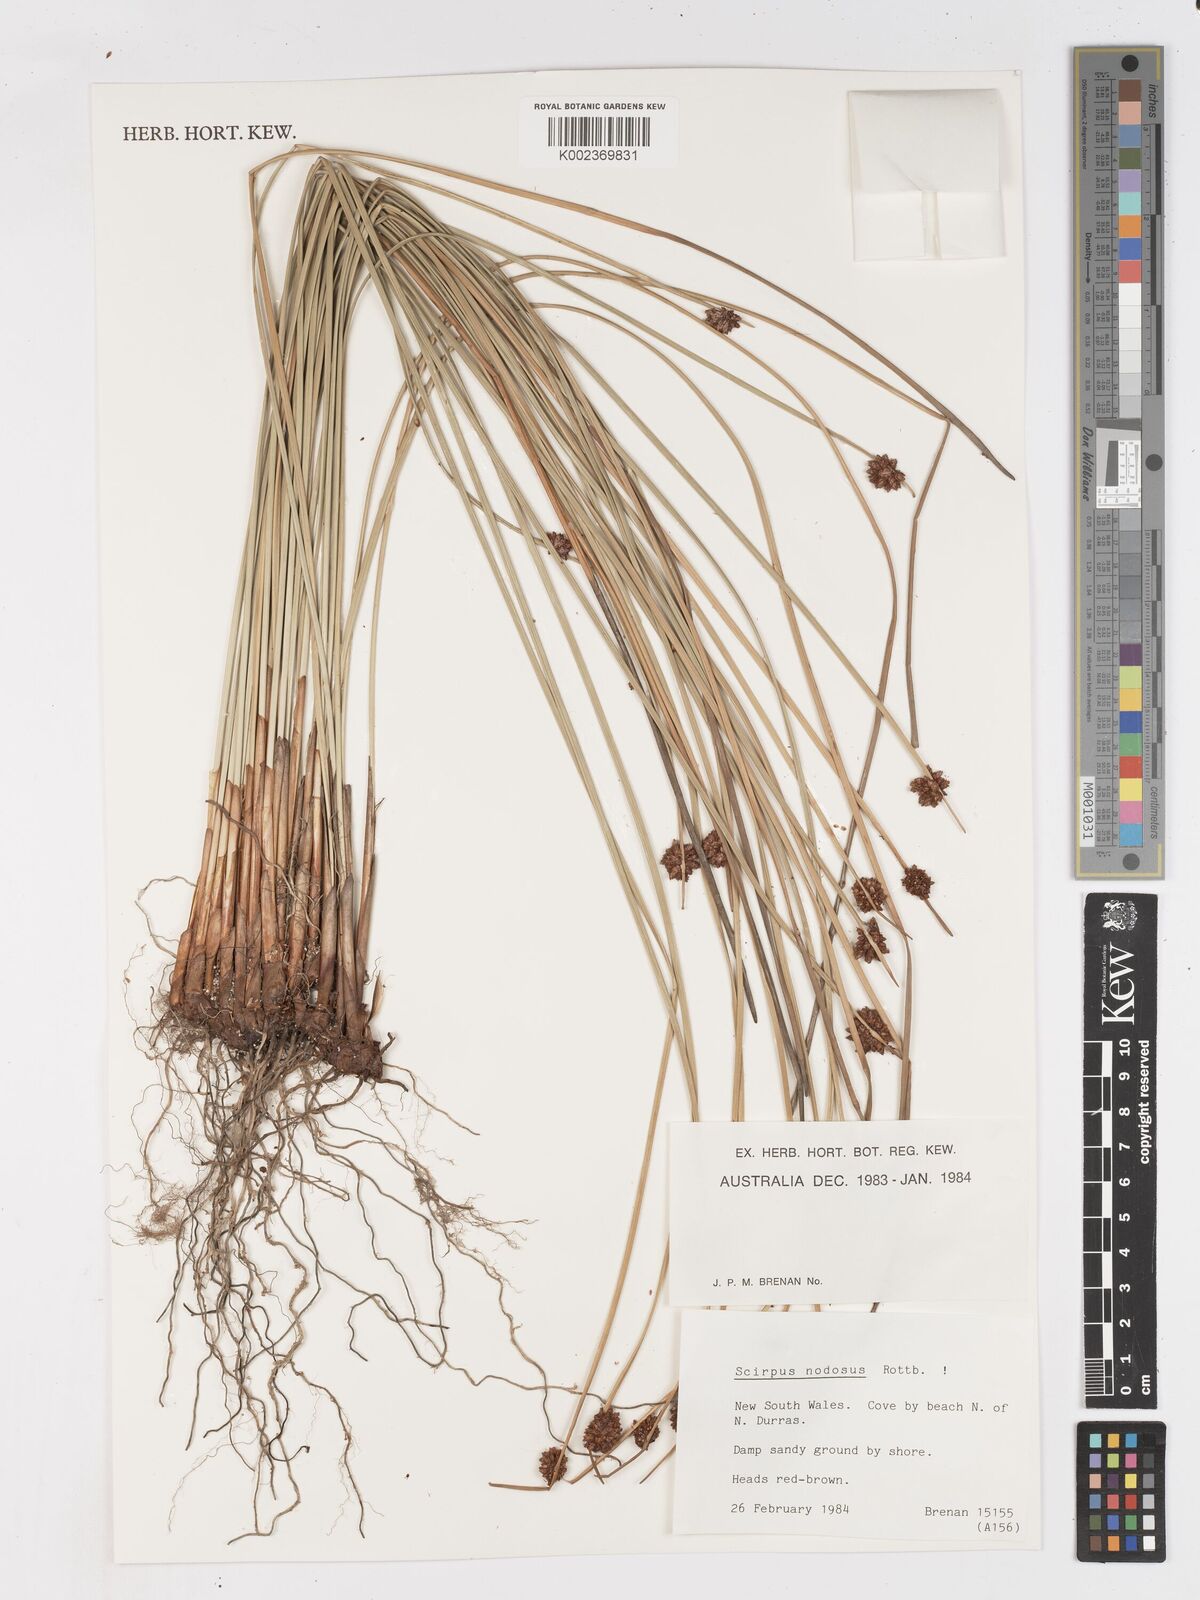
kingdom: Plantae
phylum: Tracheophyta
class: Liliopsida
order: Poales
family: Cyperaceae
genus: Ficinia
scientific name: Ficinia nodosa
